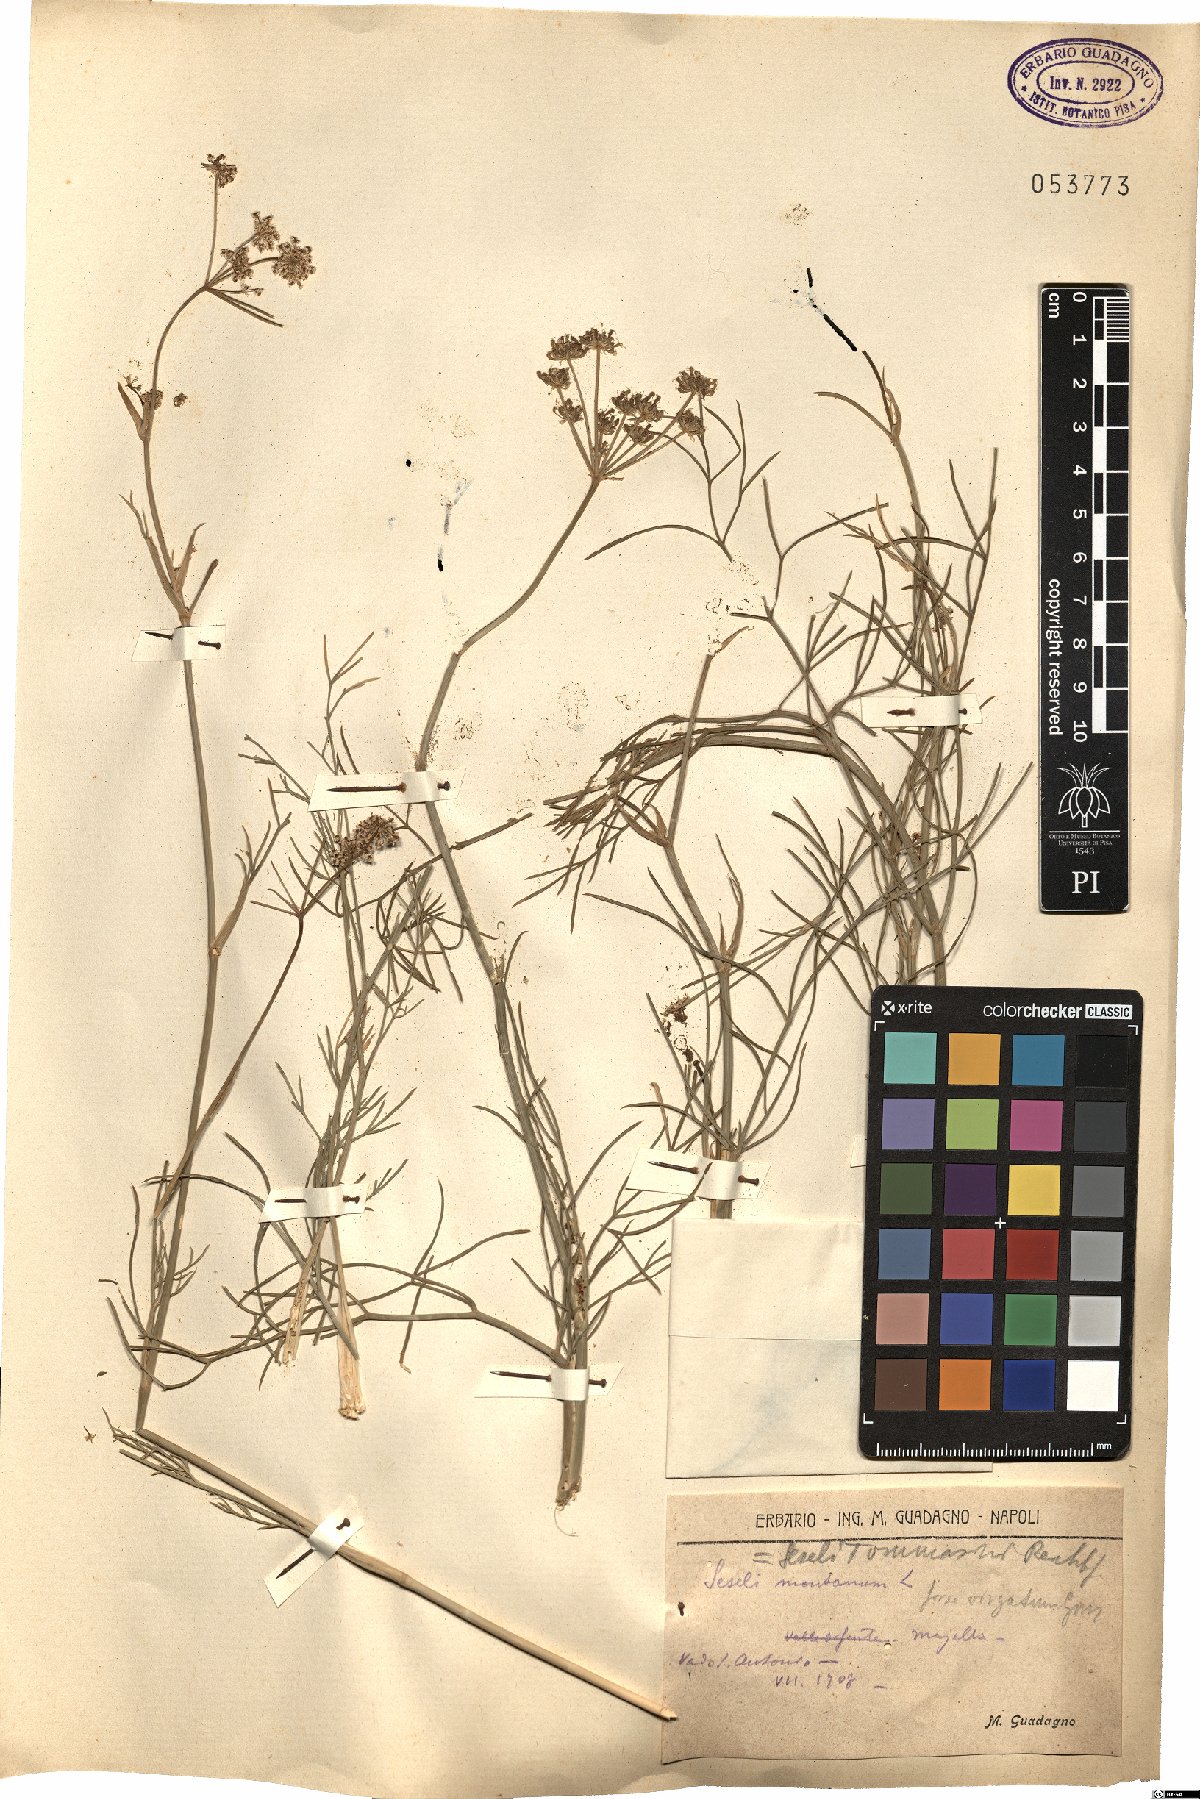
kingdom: Plantae
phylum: Tracheophyta
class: Magnoliopsida
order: Apiales
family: Apiaceae
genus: Seseli
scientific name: Seseli montanum
